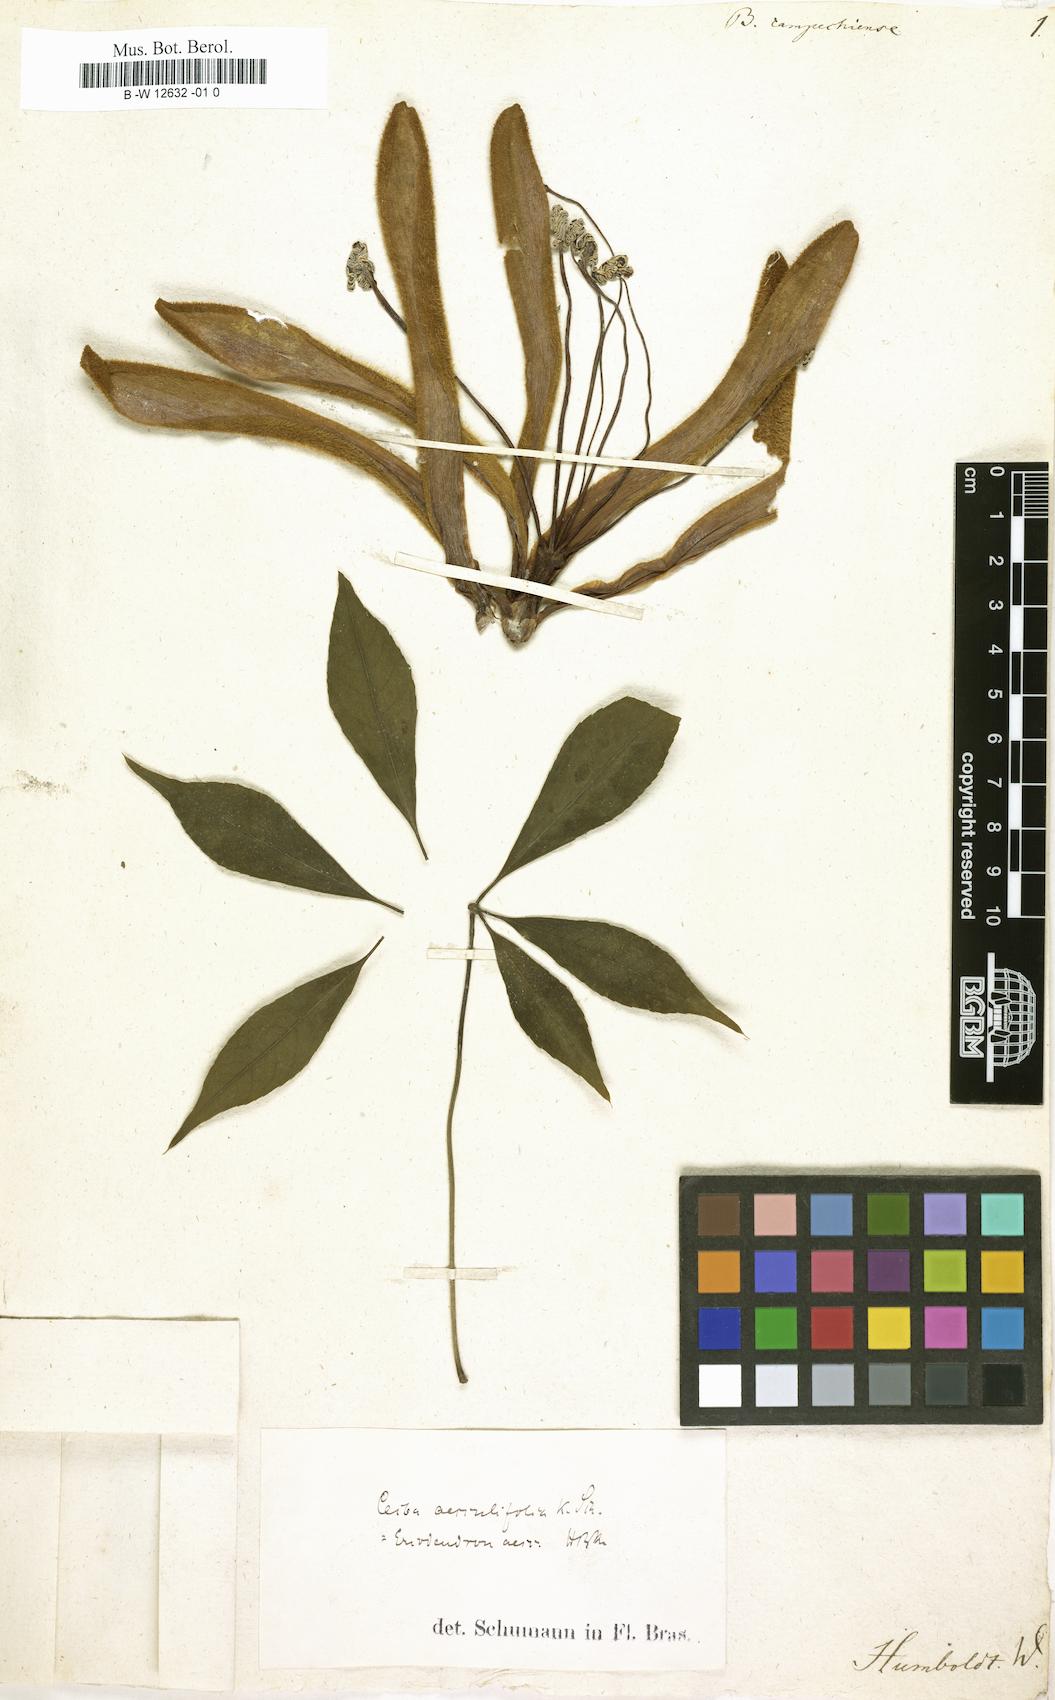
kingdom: Plantae
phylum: Tracheophyta
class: Magnoliopsida
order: Malvales
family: Malvaceae
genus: Bombax
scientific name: Bombax
